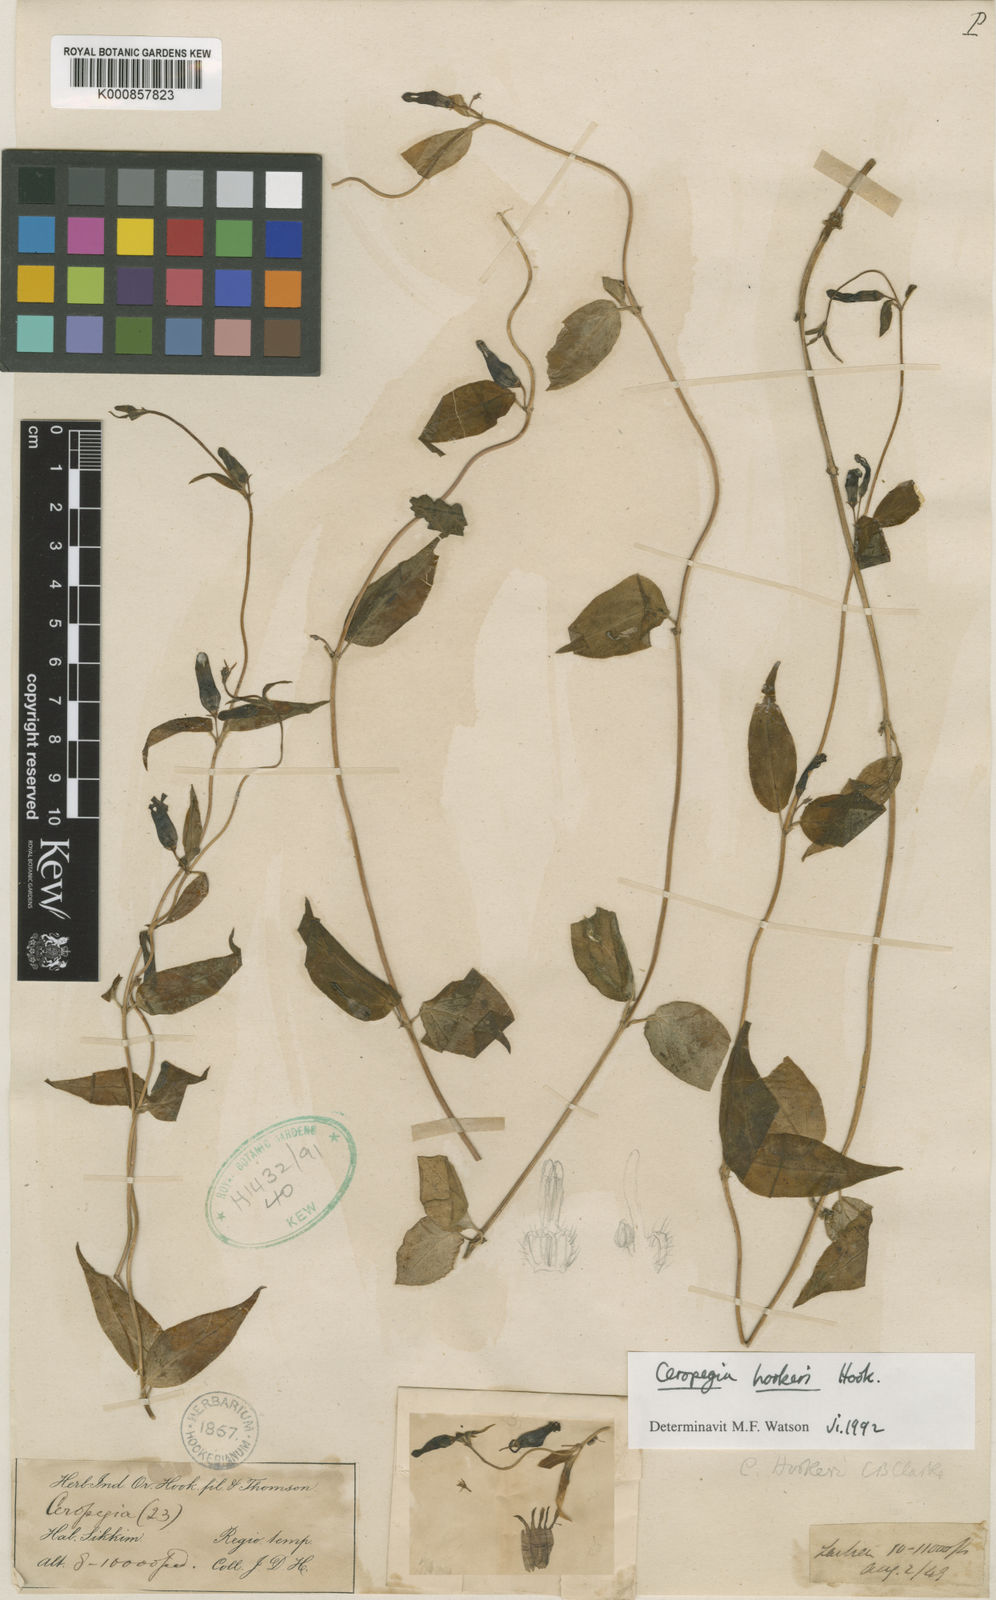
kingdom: Plantae
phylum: Tracheophyta
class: Magnoliopsida
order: Gentianales
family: Apocynaceae
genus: Ceropegia
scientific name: Ceropegia hookeri
